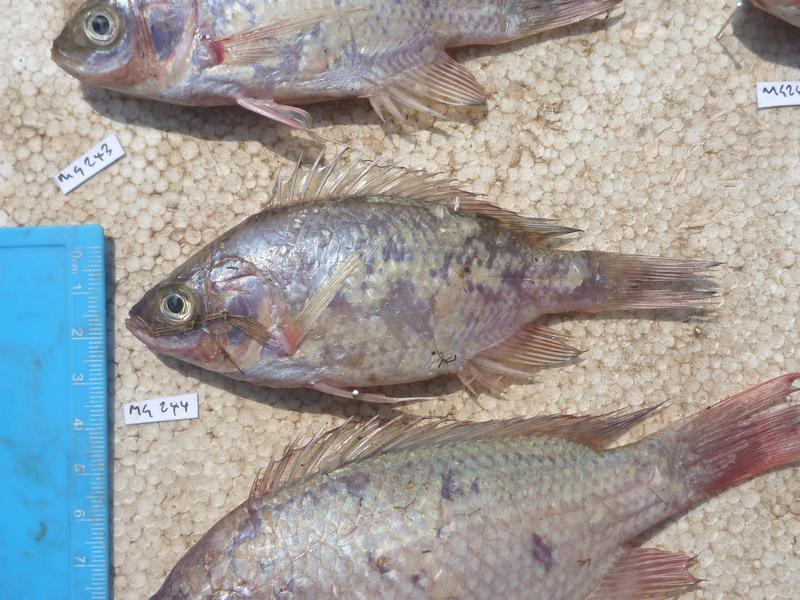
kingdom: Animalia
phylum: Chordata
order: Perciformes
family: Cichlidae
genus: Oreochromis
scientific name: Oreochromis esculentus
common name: Carp
